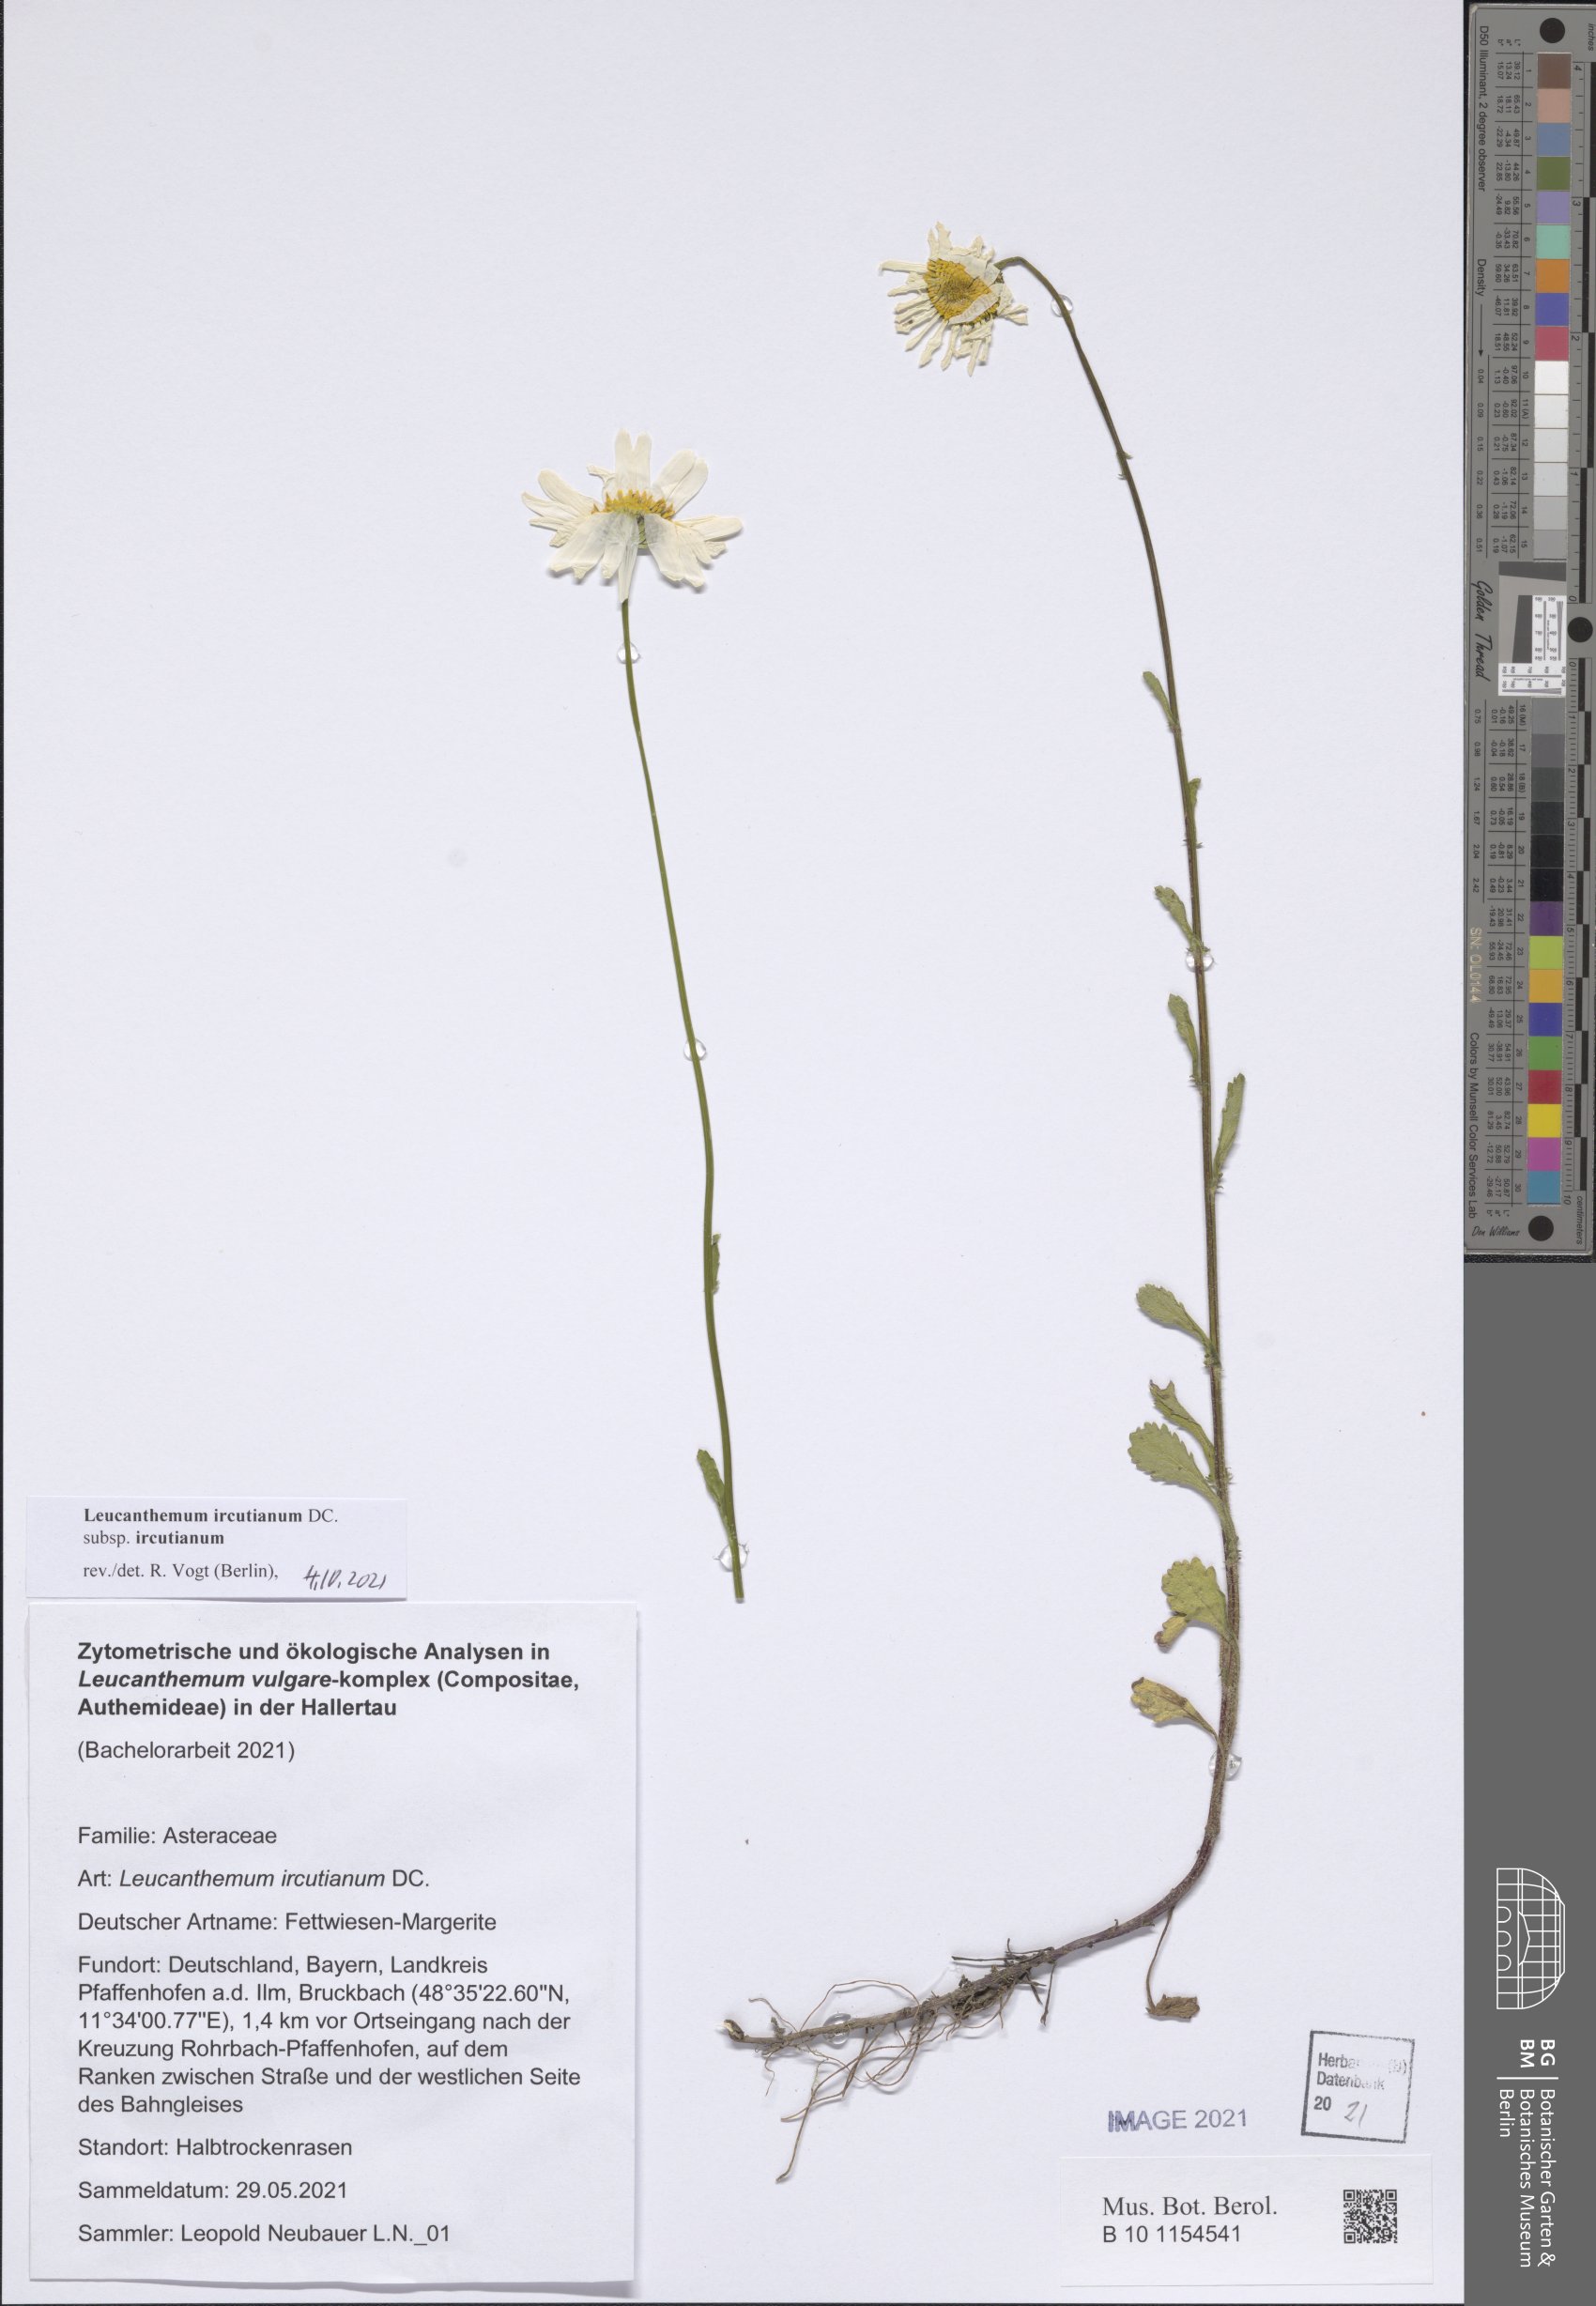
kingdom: Plantae
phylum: Tracheophyta
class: Magnoliopsida
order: Asterales
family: Asteraceae
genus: Leucanthemum
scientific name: Leucanthemum ircutianum
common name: Daisy
